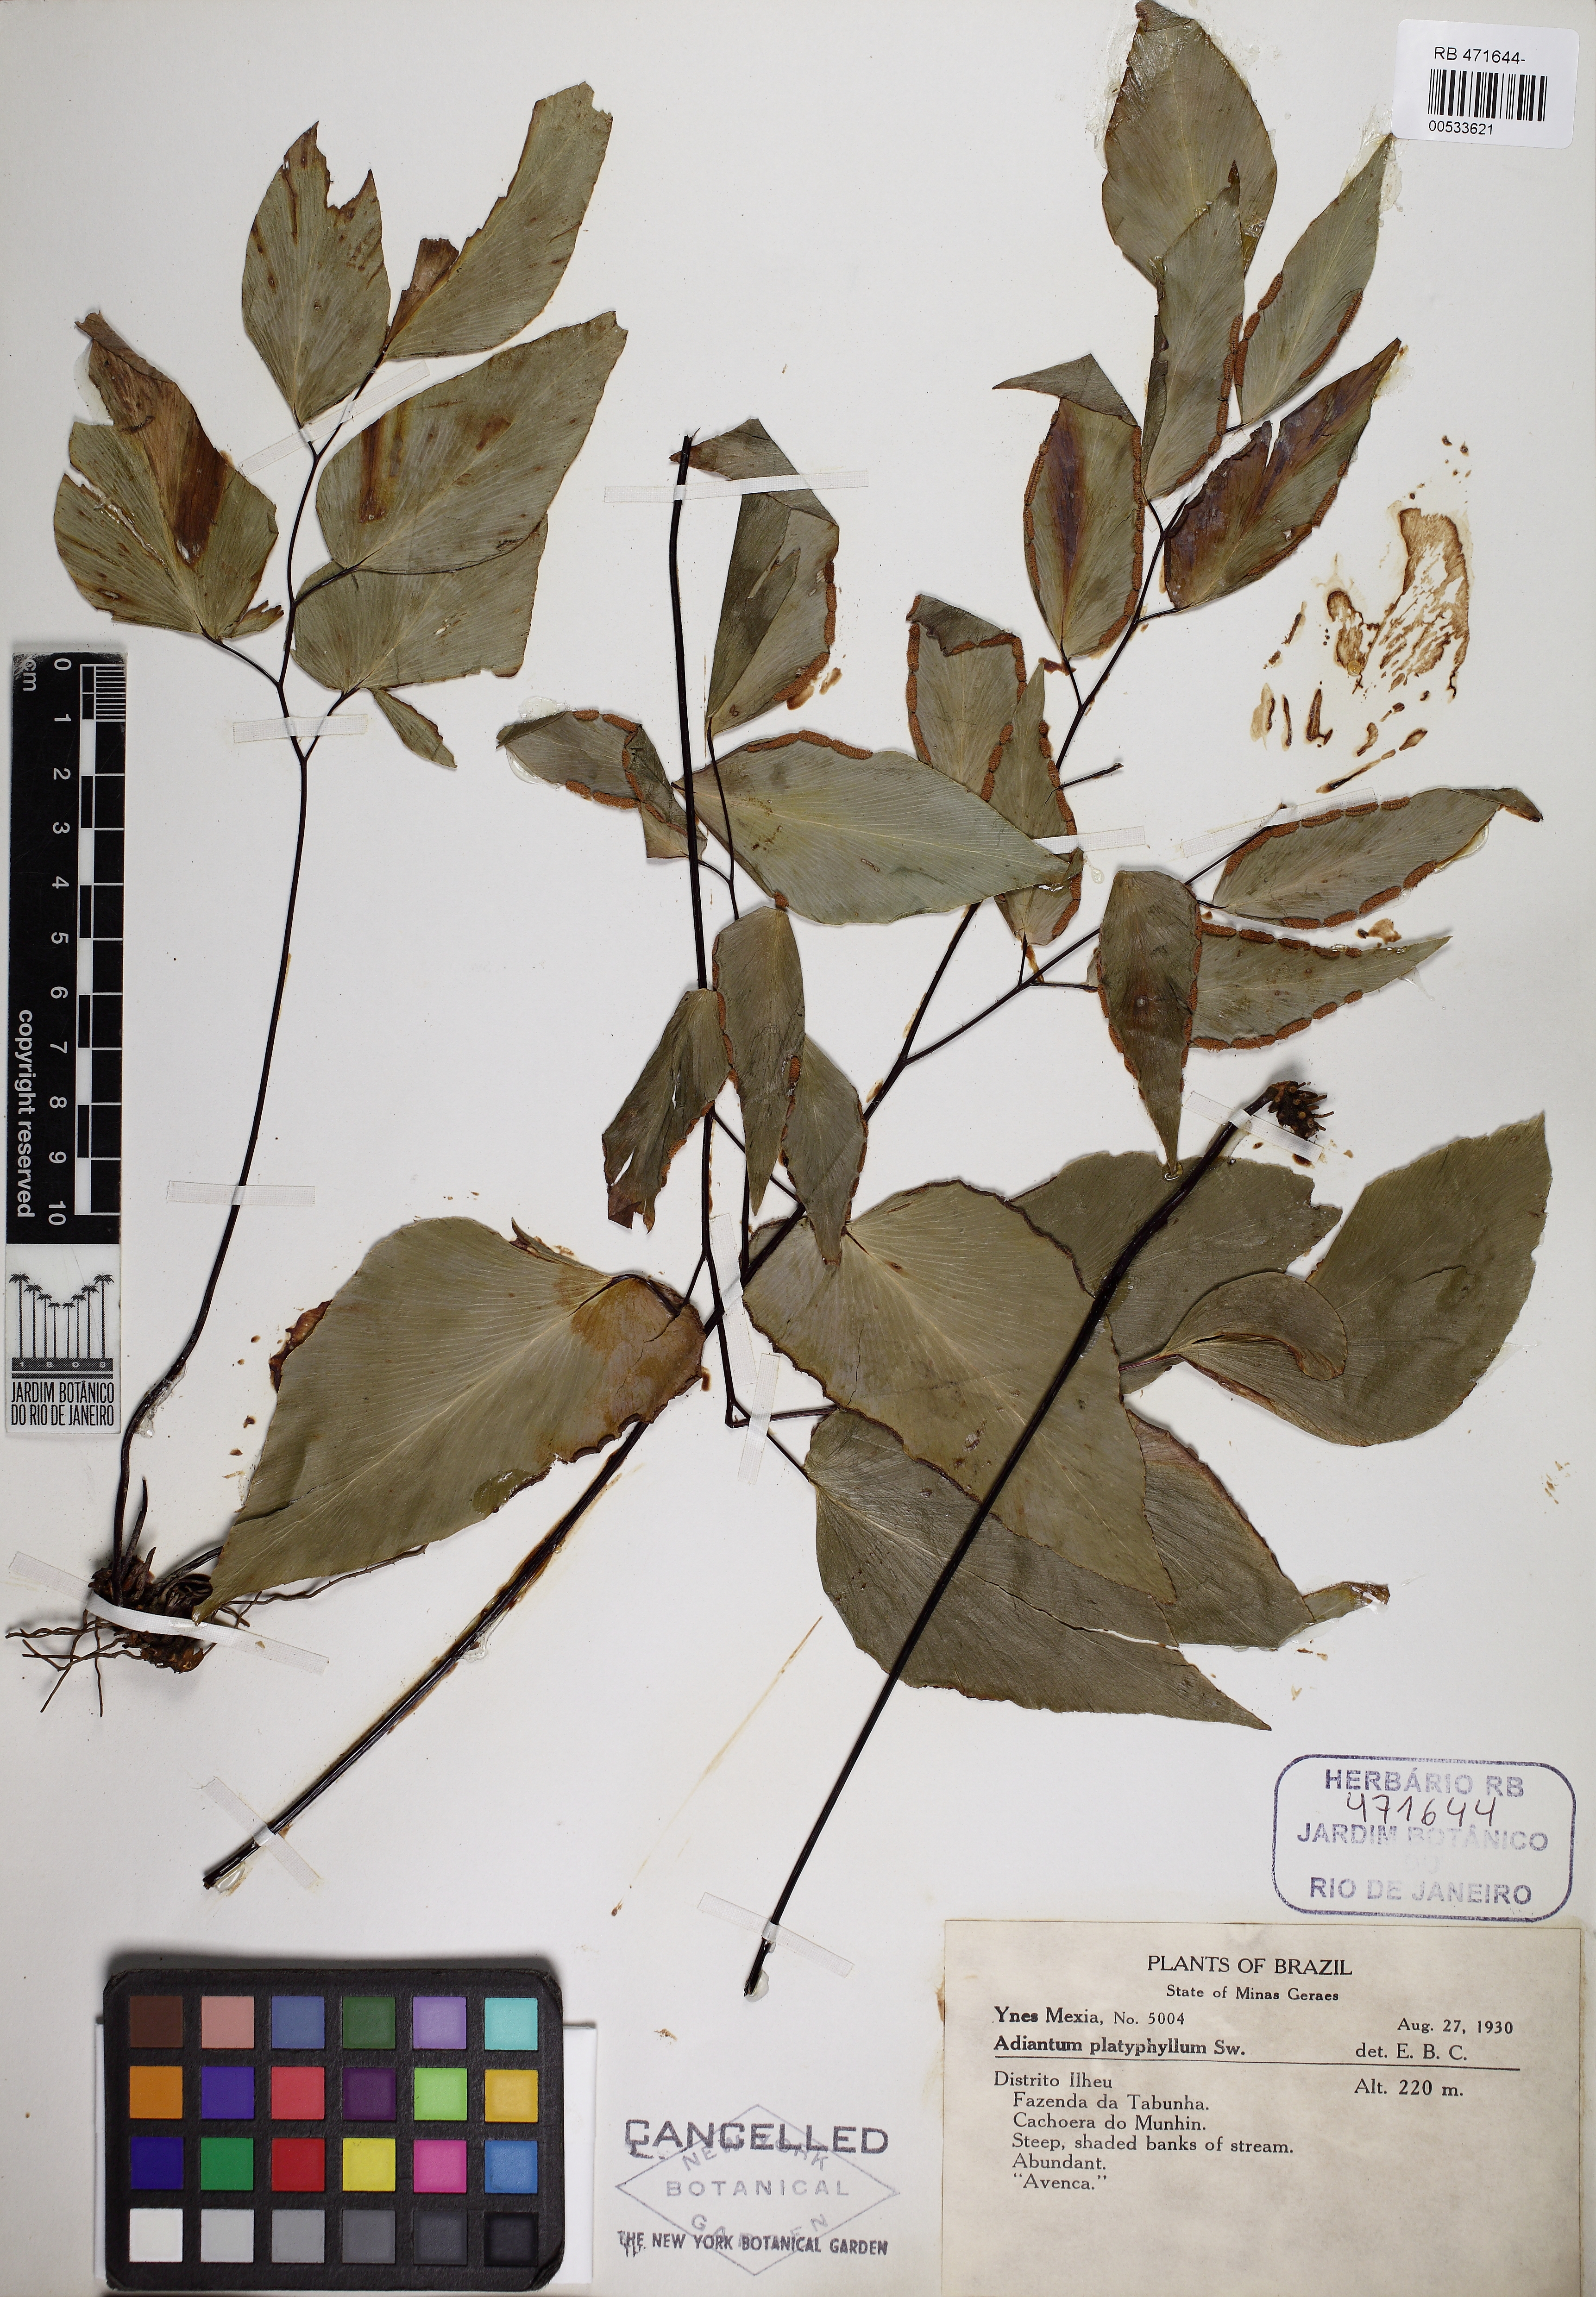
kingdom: Plantae
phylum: Tracheophyta
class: Polypodiopsida
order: Polypodiales
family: Pteridaceae
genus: Adiantum
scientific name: Adiantum platyphyllum
